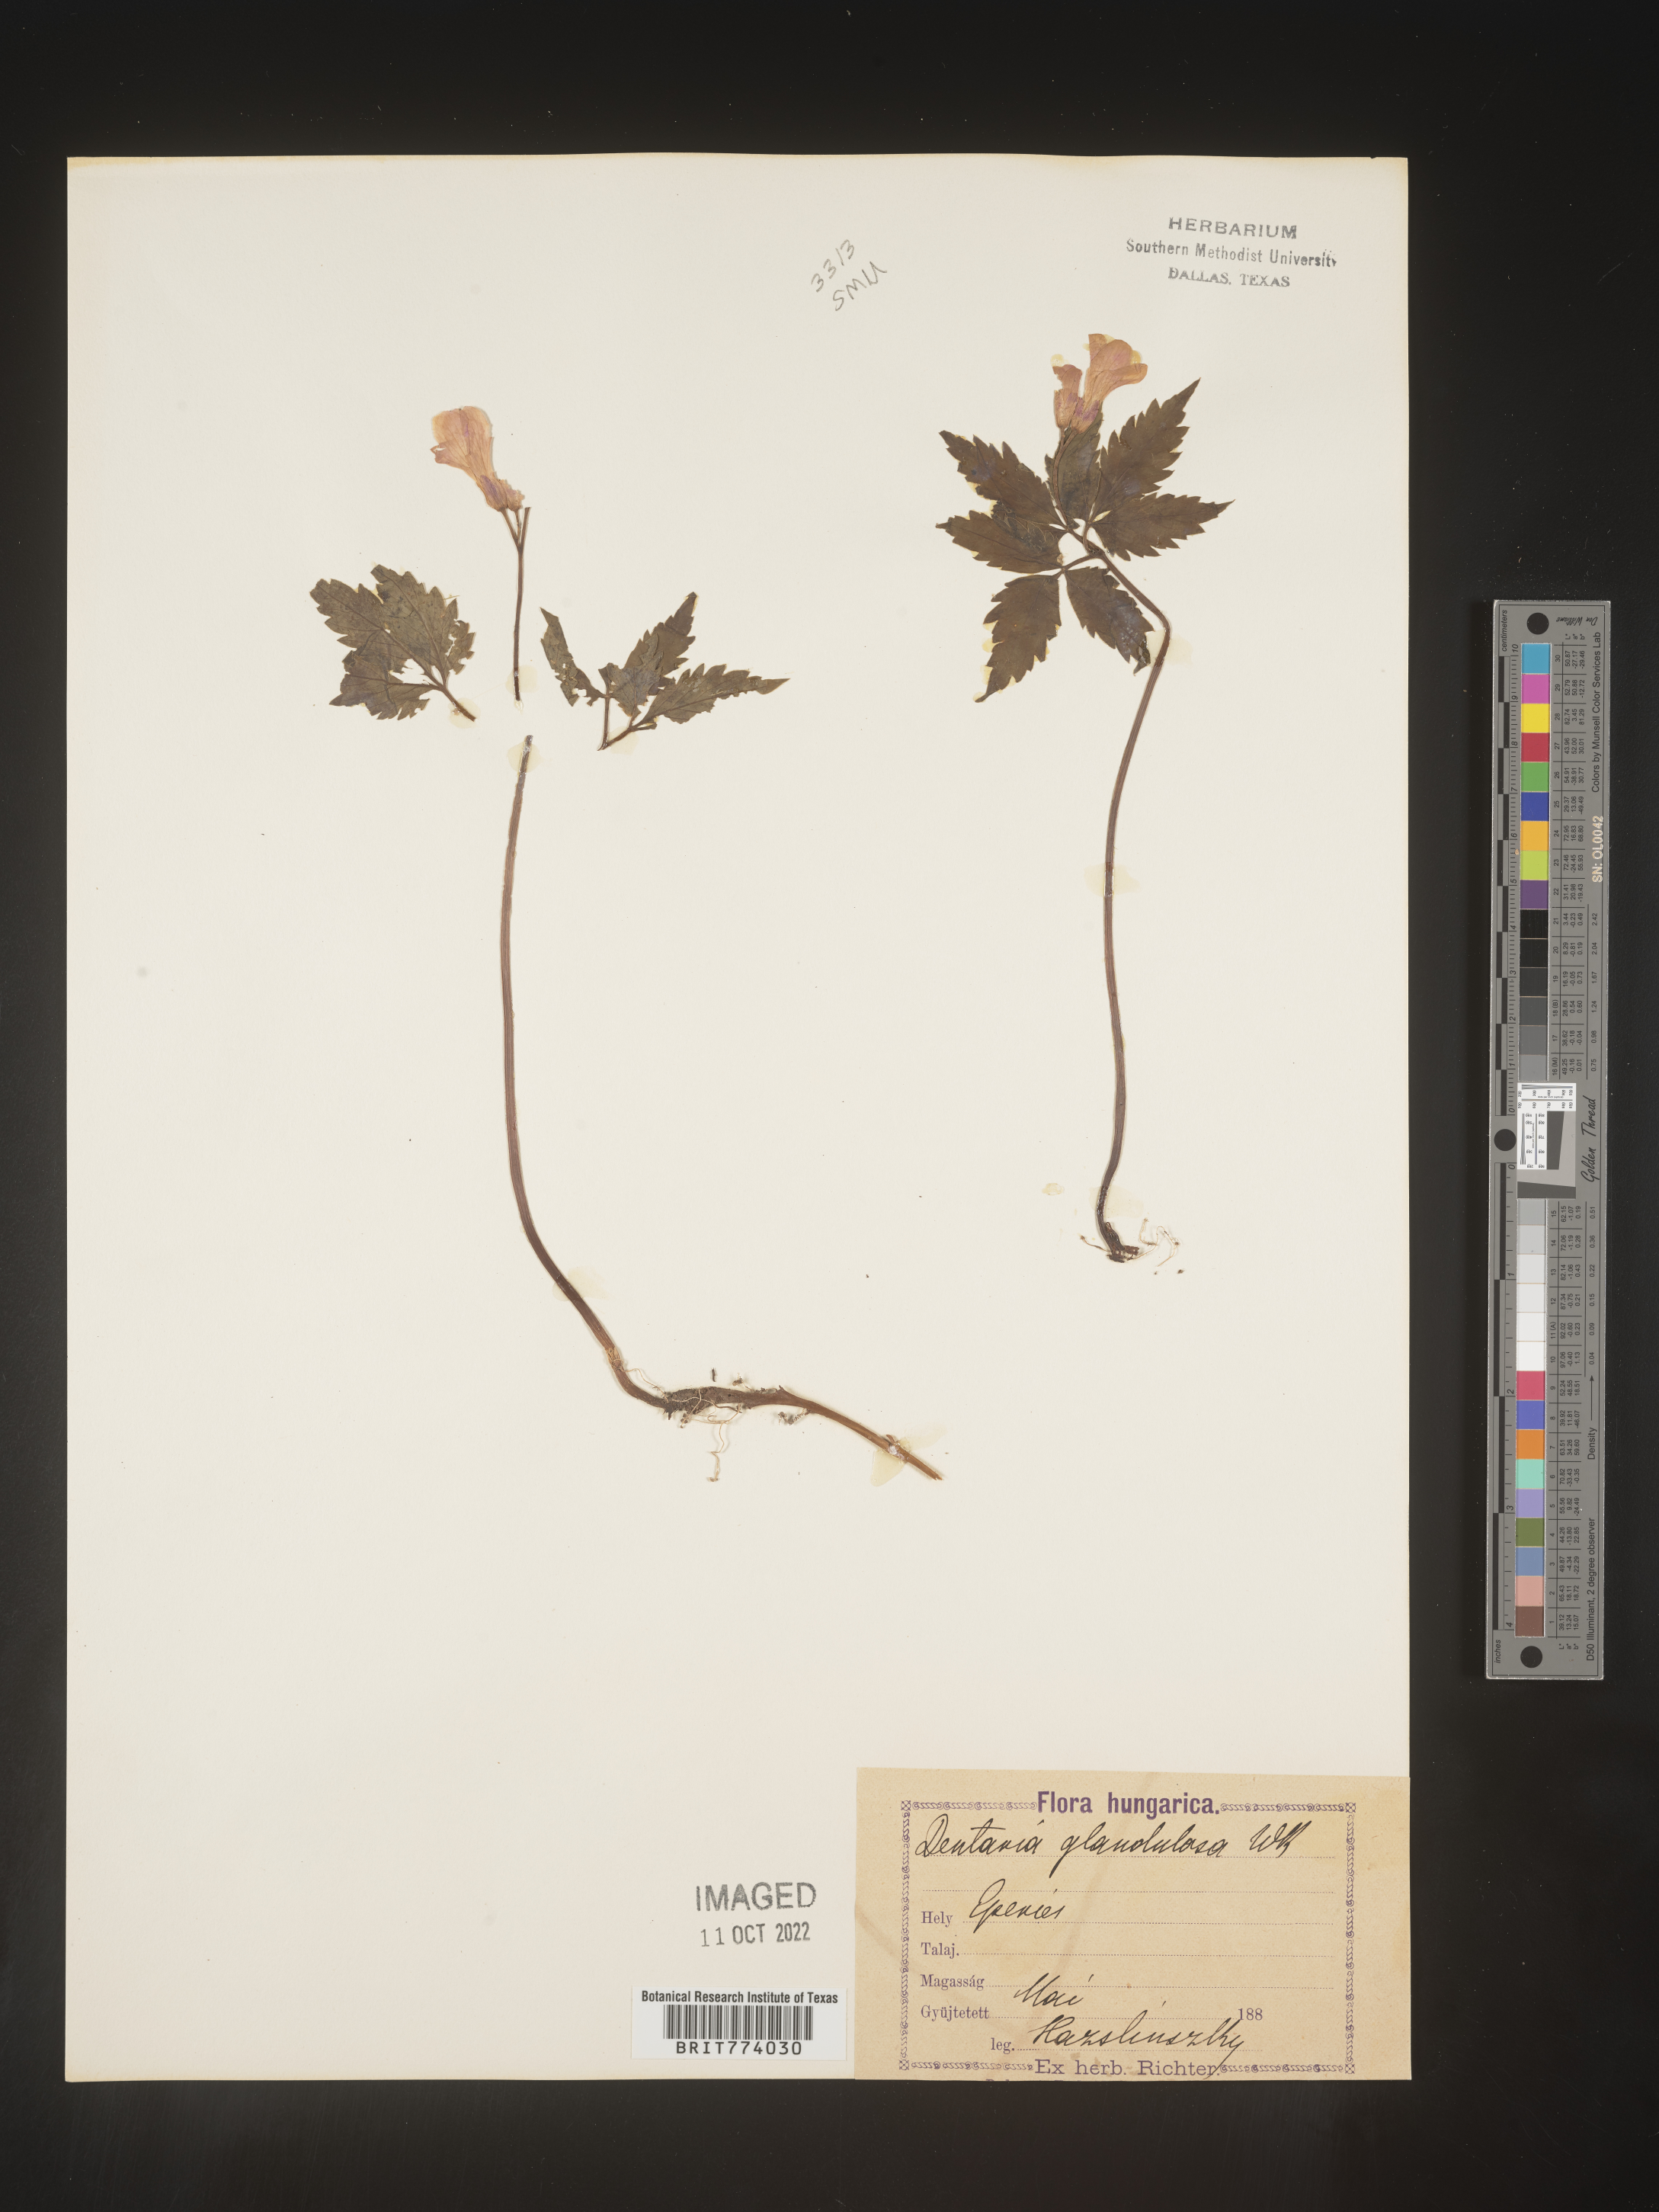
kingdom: Plantae
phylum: Tracheophyta
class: Magnoliopsida
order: Brassicales
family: Brassicaceae
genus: Cardamine
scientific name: Cardamine
